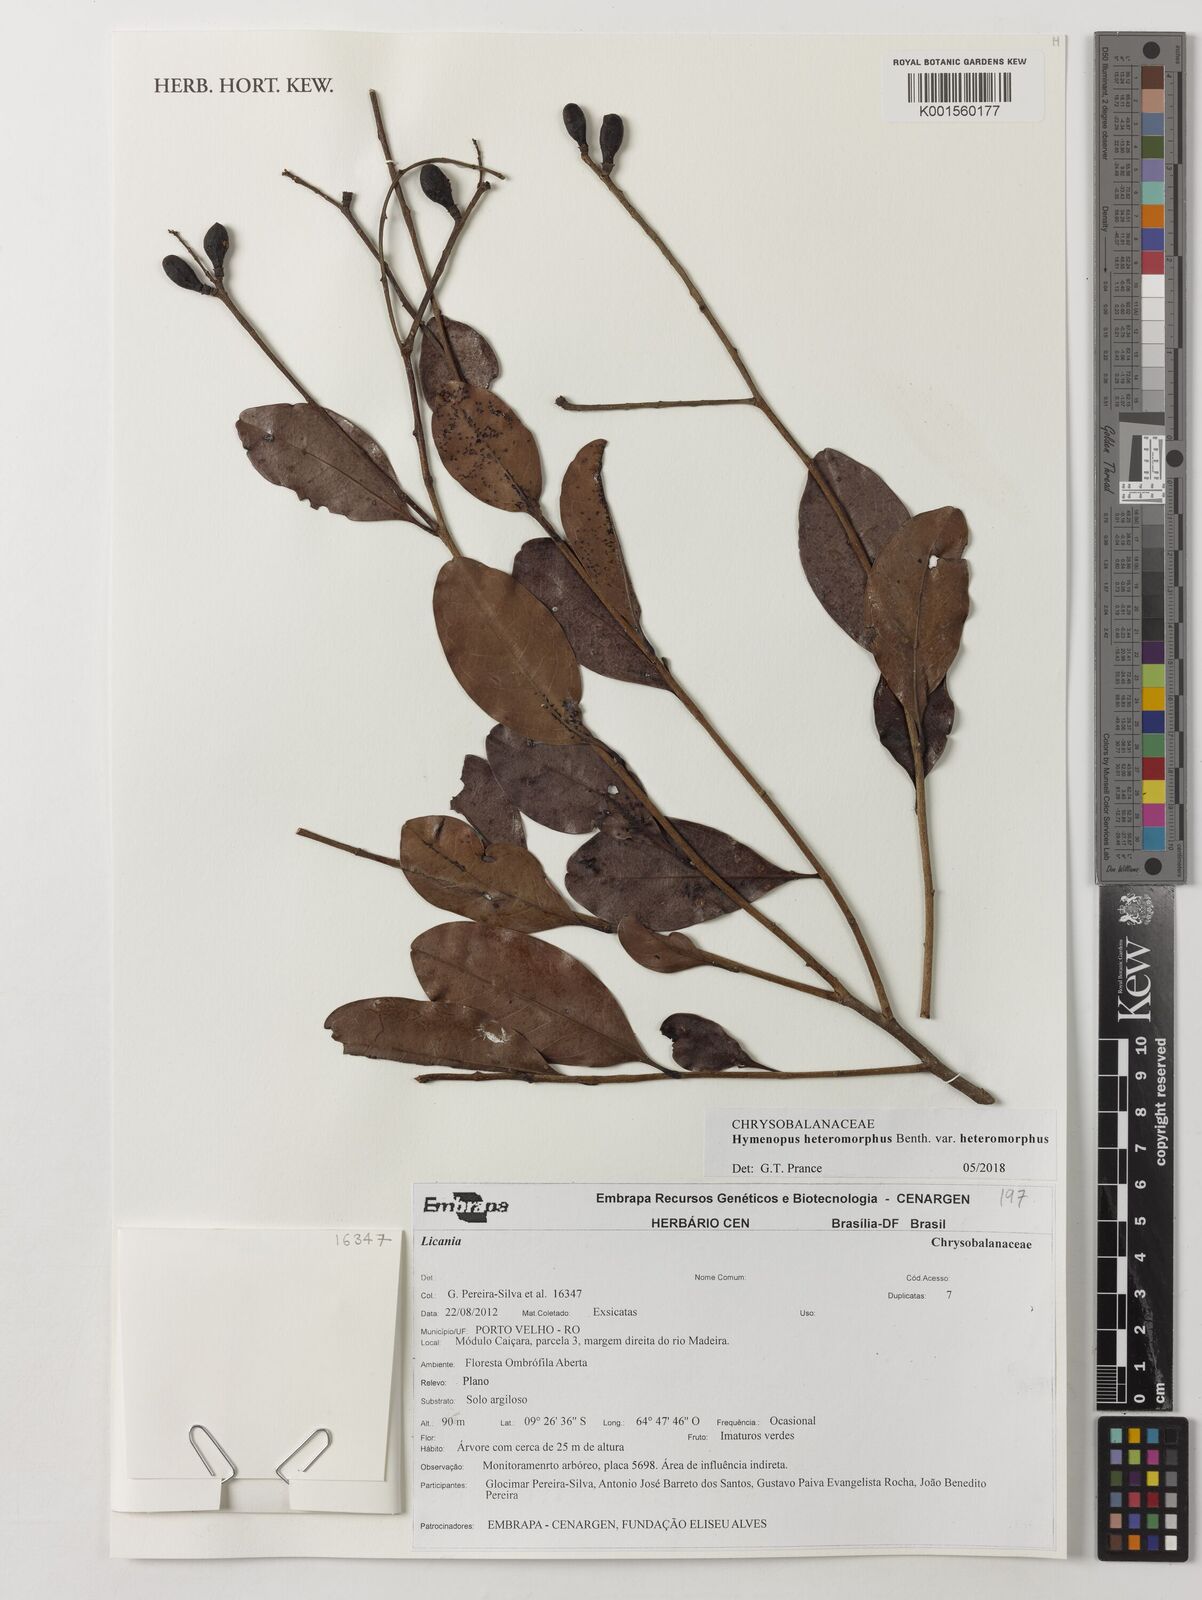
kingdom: Plantae
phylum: Tracheophyta
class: Magnoliopsida
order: Malpighiales
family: Chrysobalanaceae
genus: Hymenopus
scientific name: Hymenopus heteromorphus
